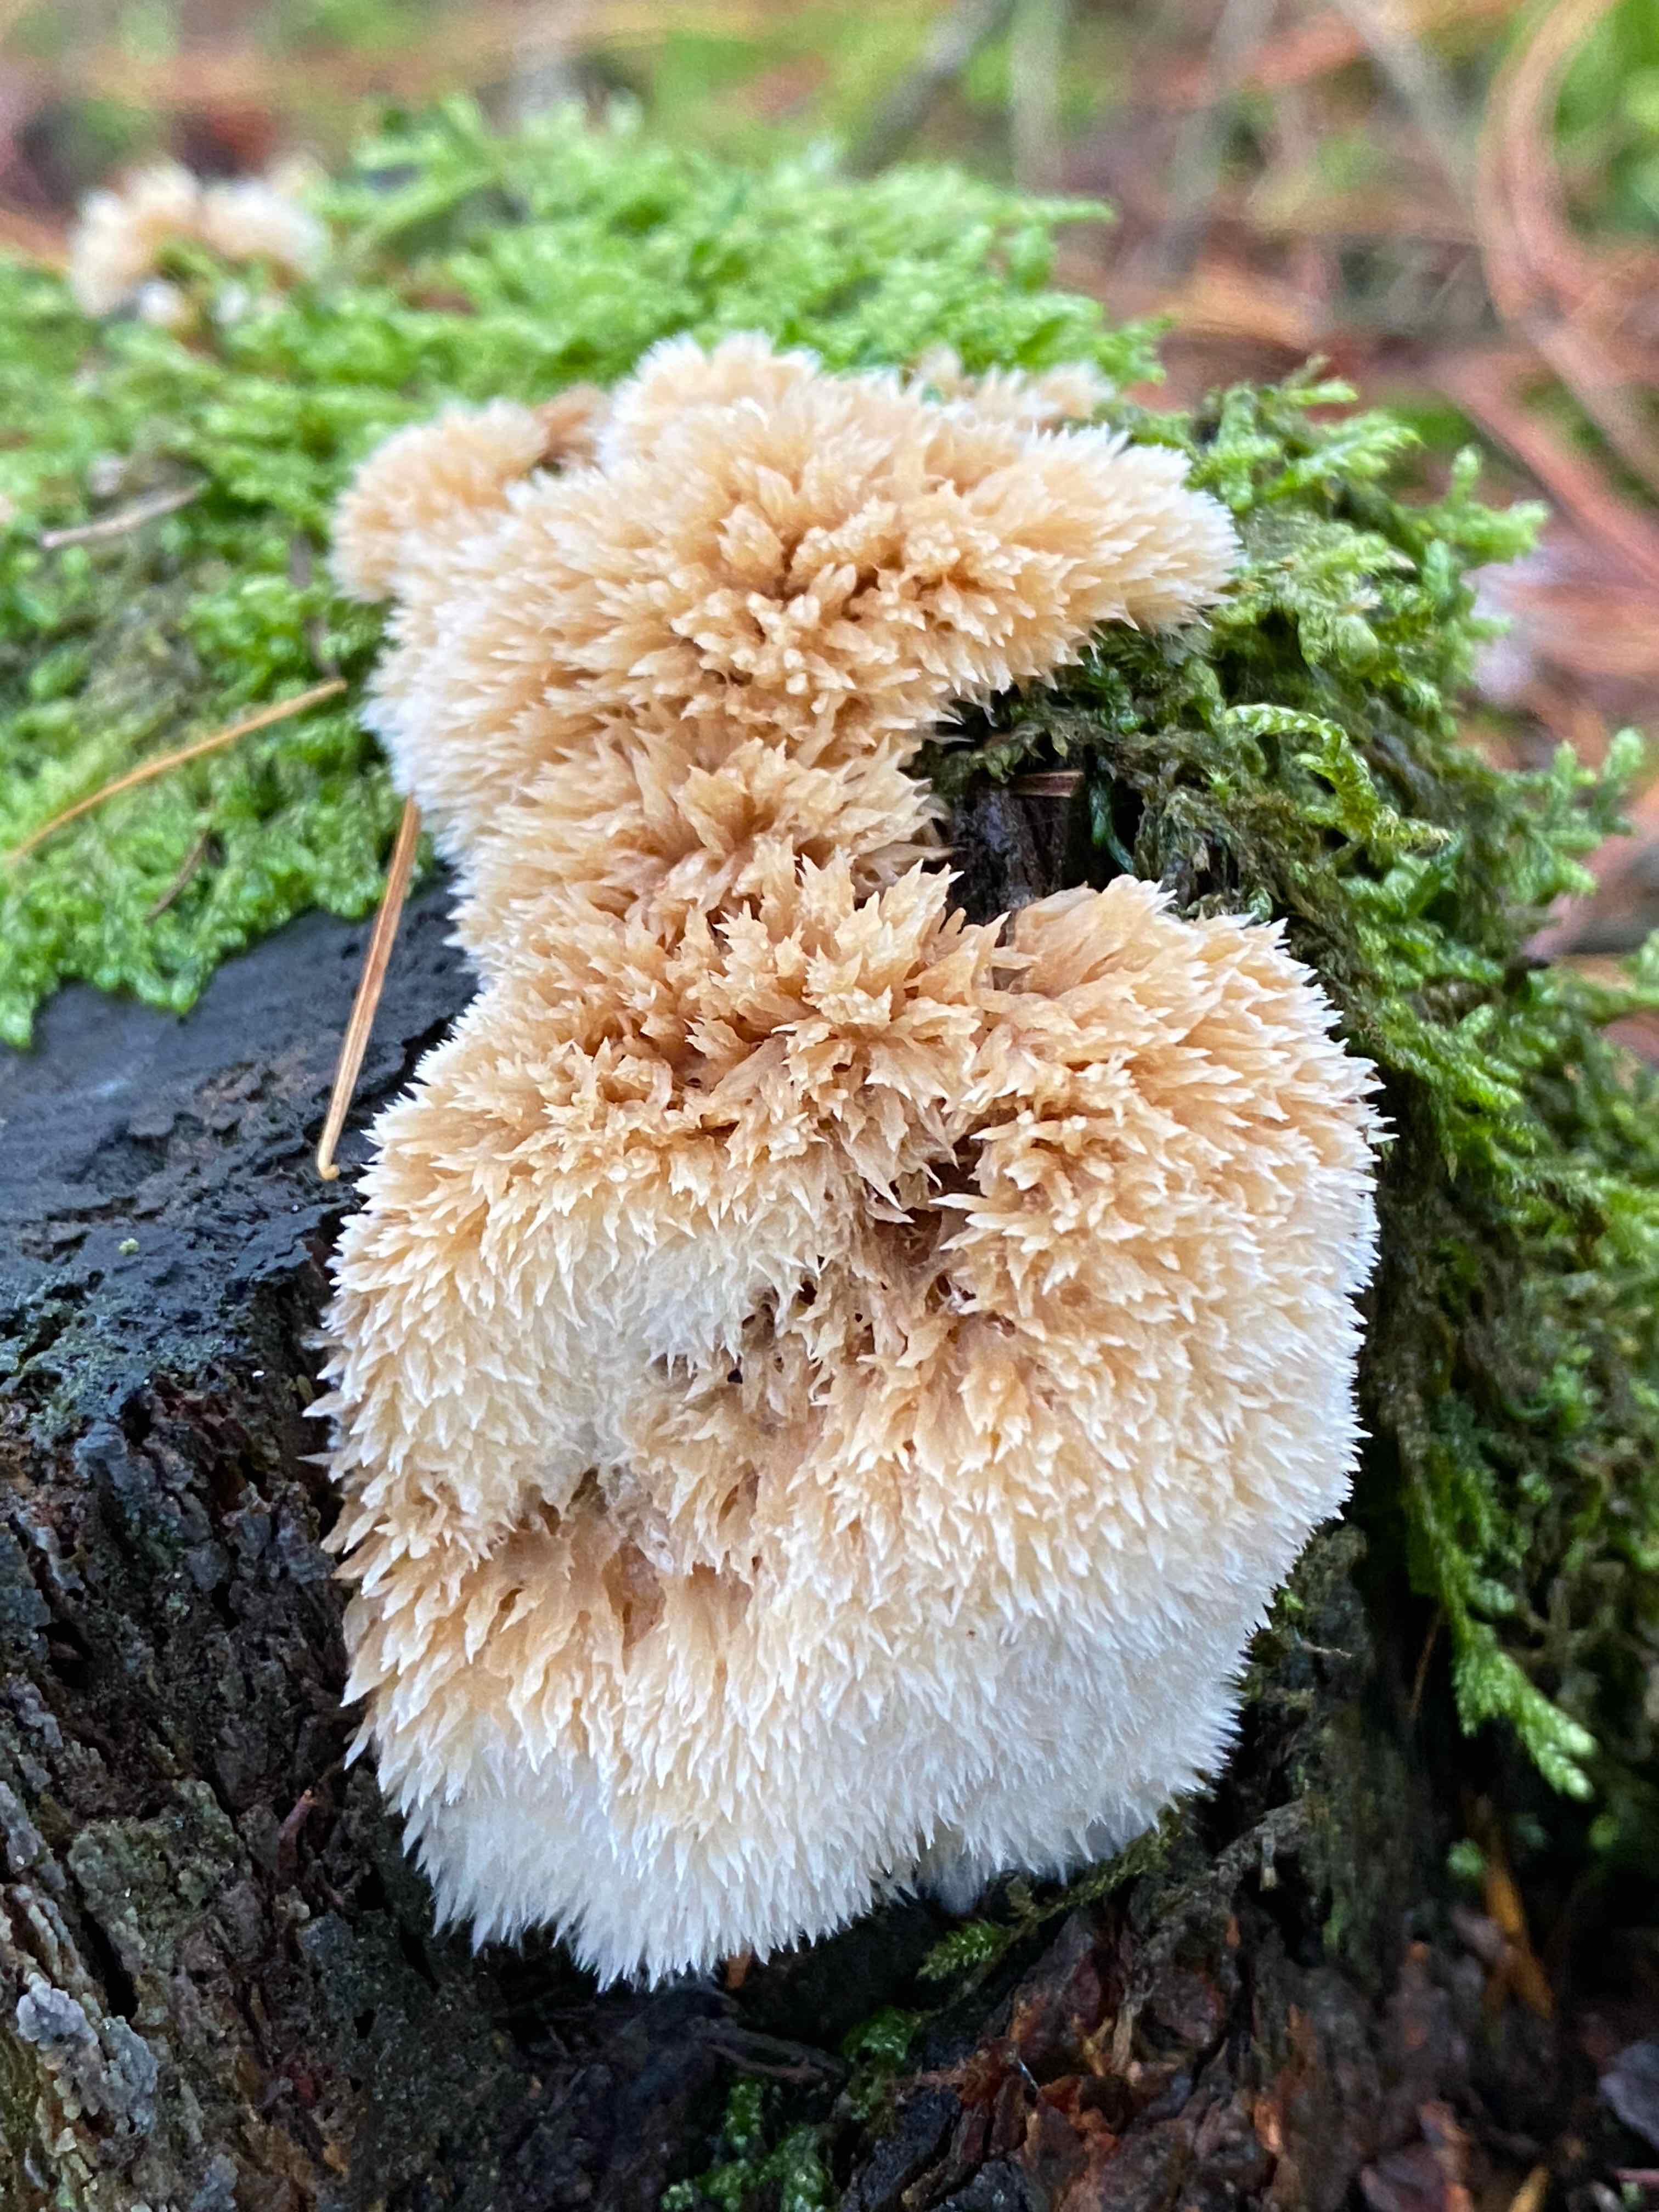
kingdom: Fungi
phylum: Basidiomycota
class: Agaricomycetes
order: Polyporales
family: Dacryobolaceae
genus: Postia
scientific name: Postia ptychogaster
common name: støvende kødporesvamp
